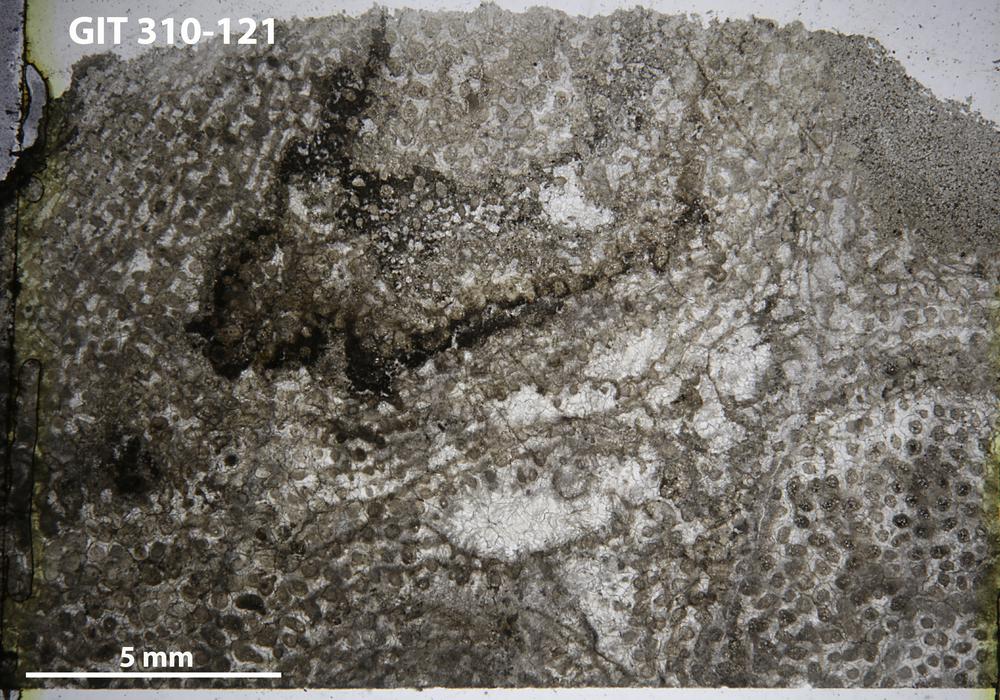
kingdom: Animalia
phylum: Porifera
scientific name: Porifera
